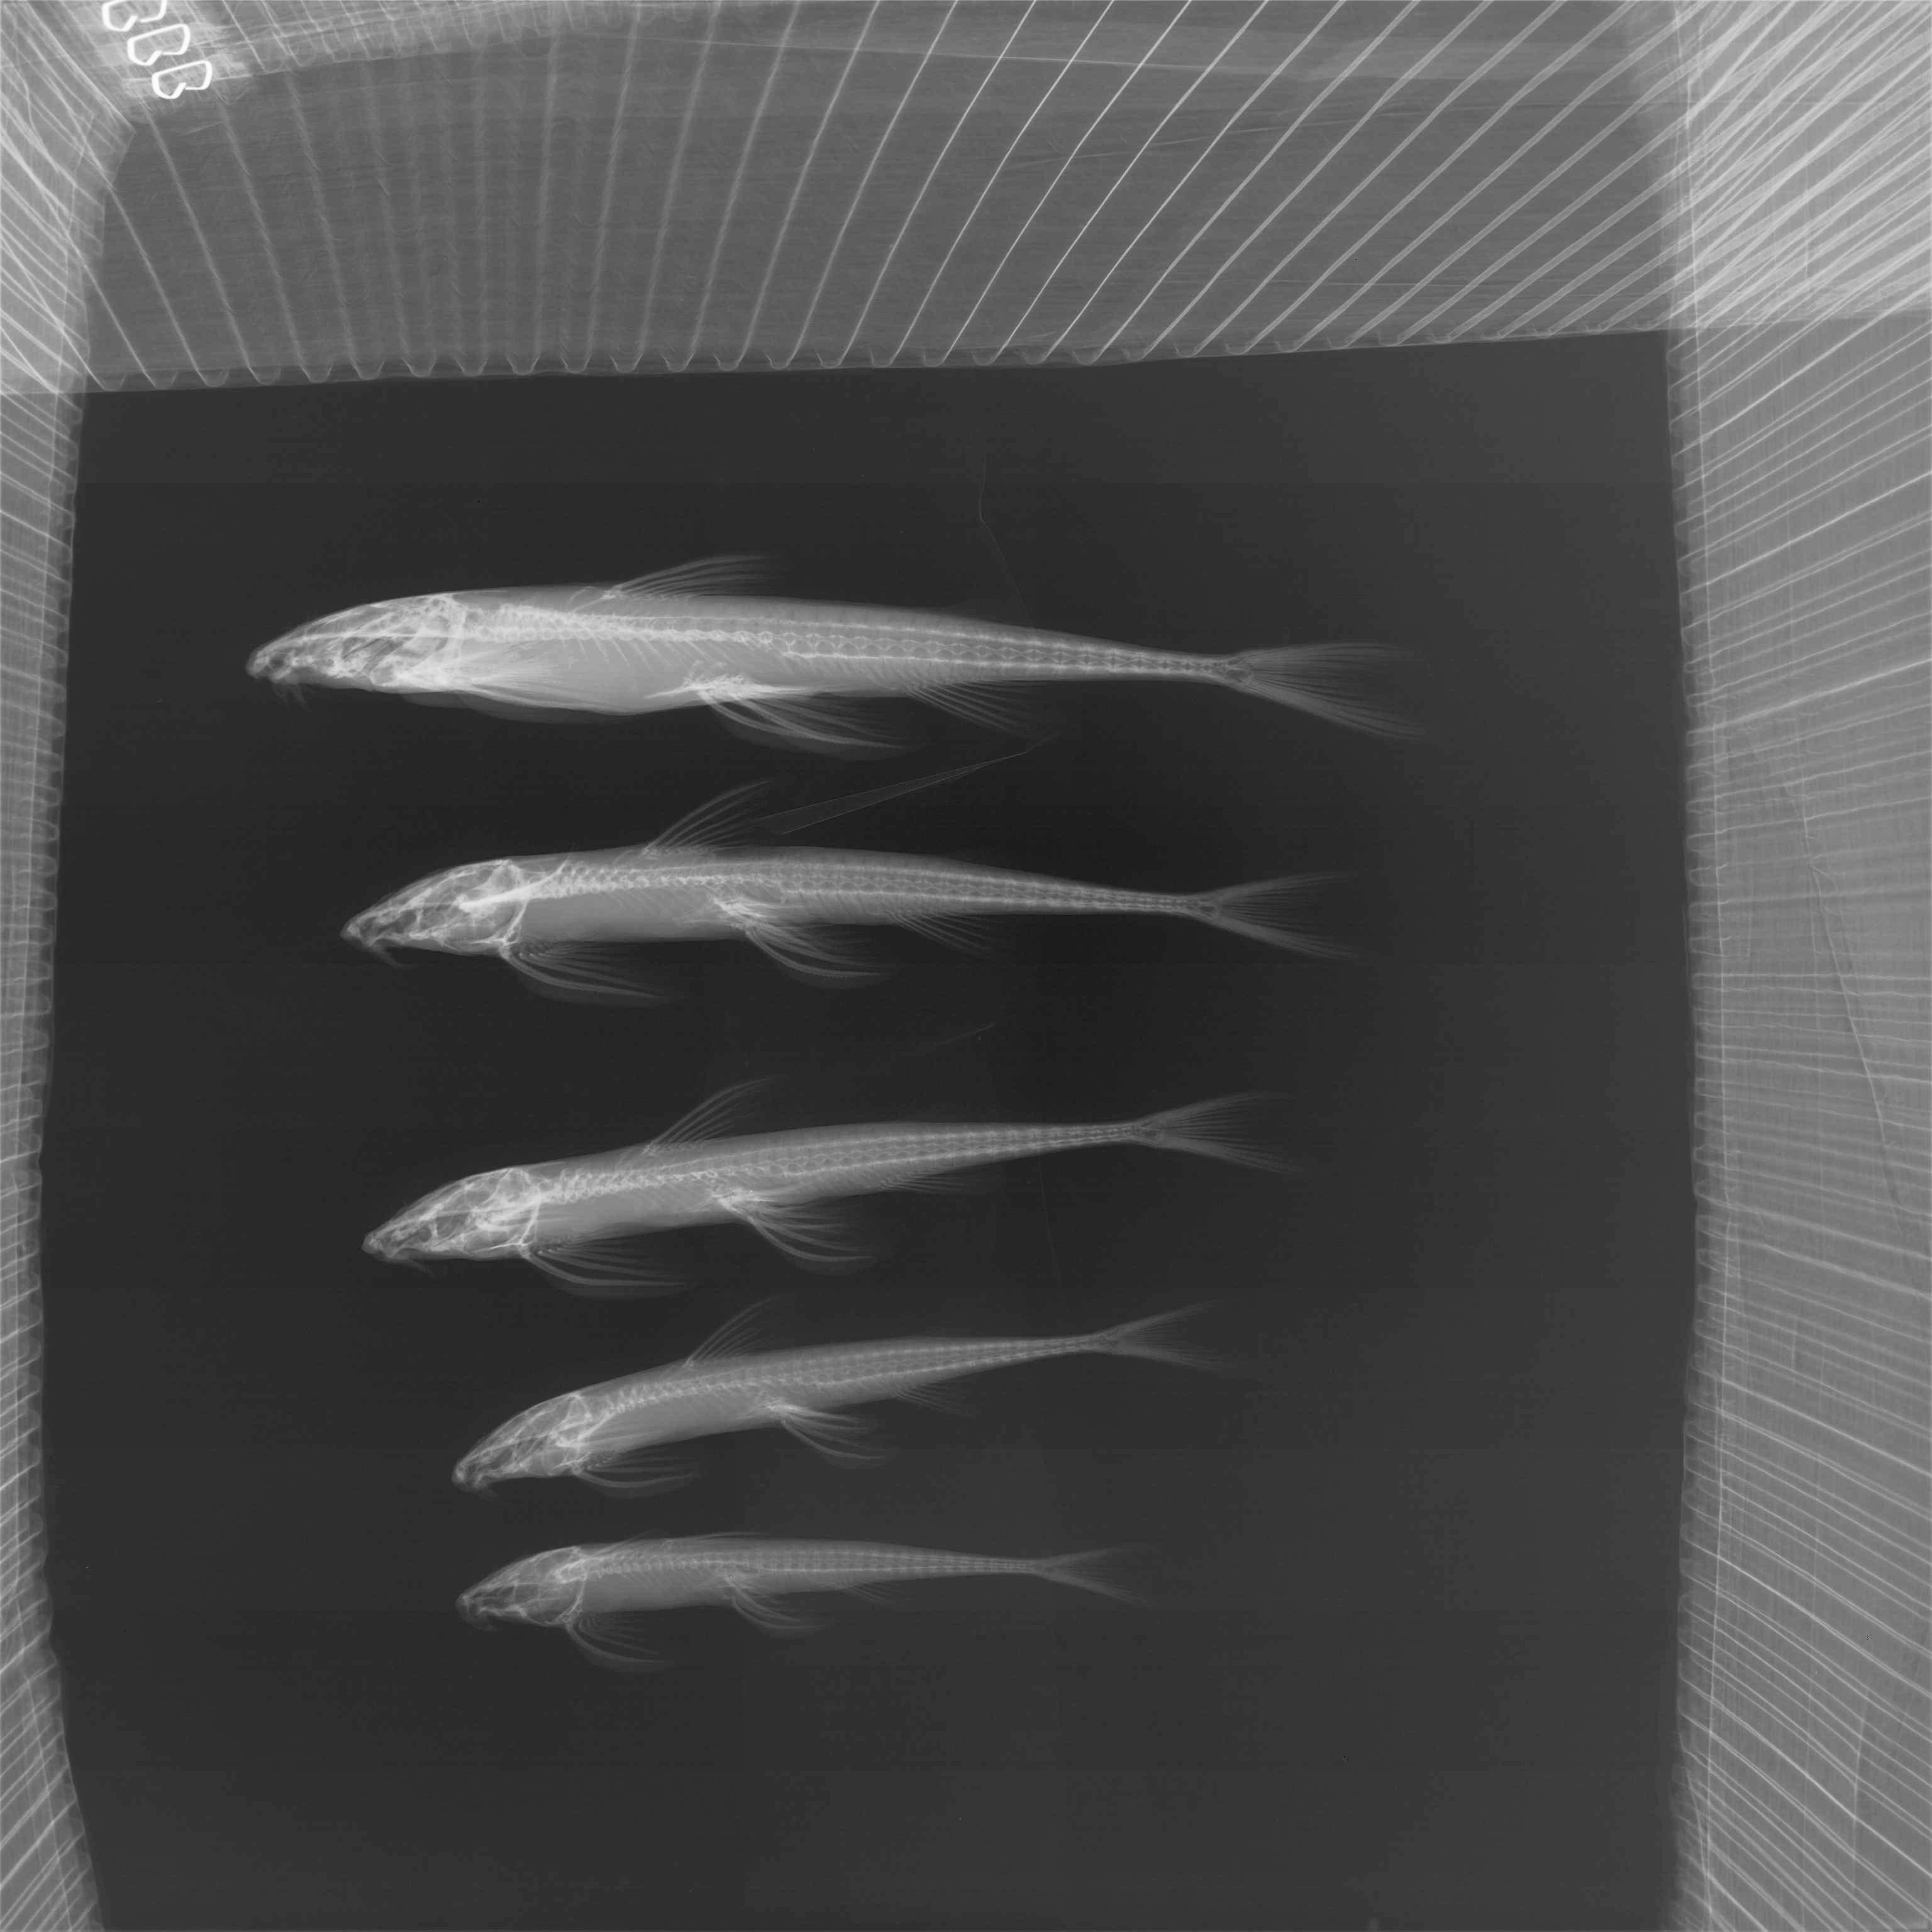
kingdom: Animalia
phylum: Chordata
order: Siluriformes
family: Amphiliidae
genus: Doumea
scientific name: Doumea
